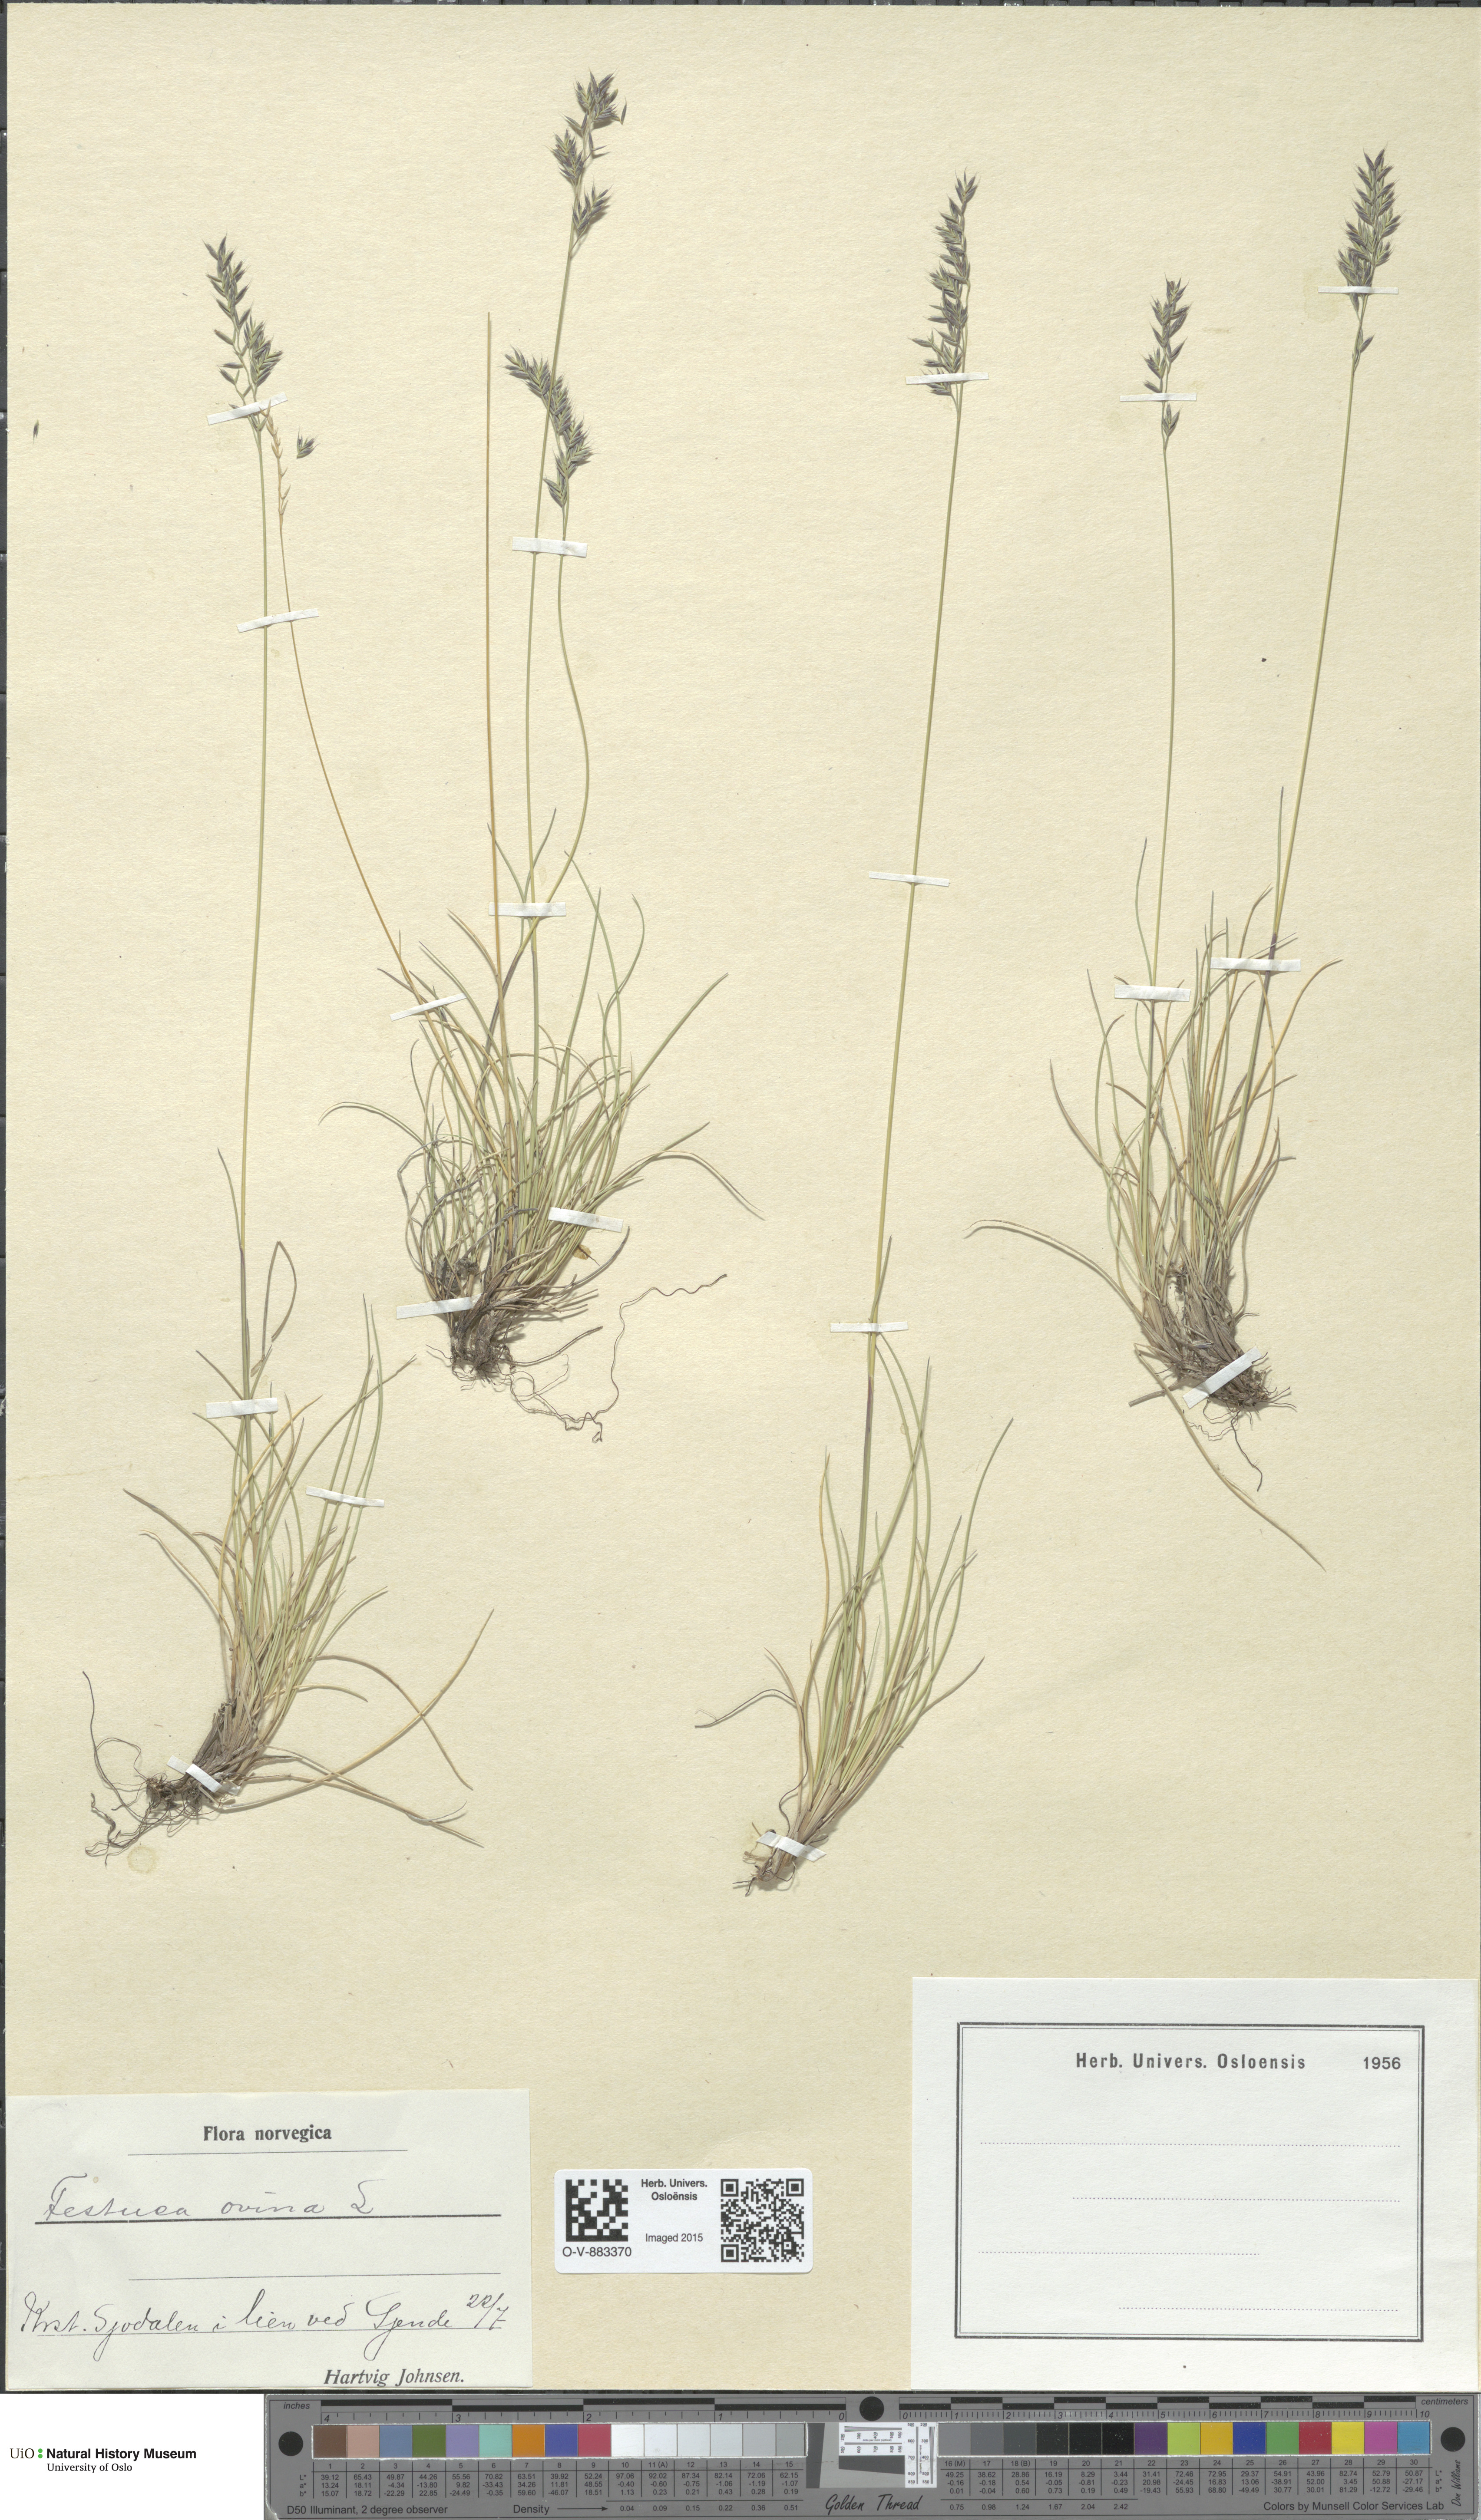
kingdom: Plantae
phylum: Tracheophyta
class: Liliopsida
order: Poales
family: Poaceae
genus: Festuca
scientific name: Festuca ovina
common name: Sheep fescue
